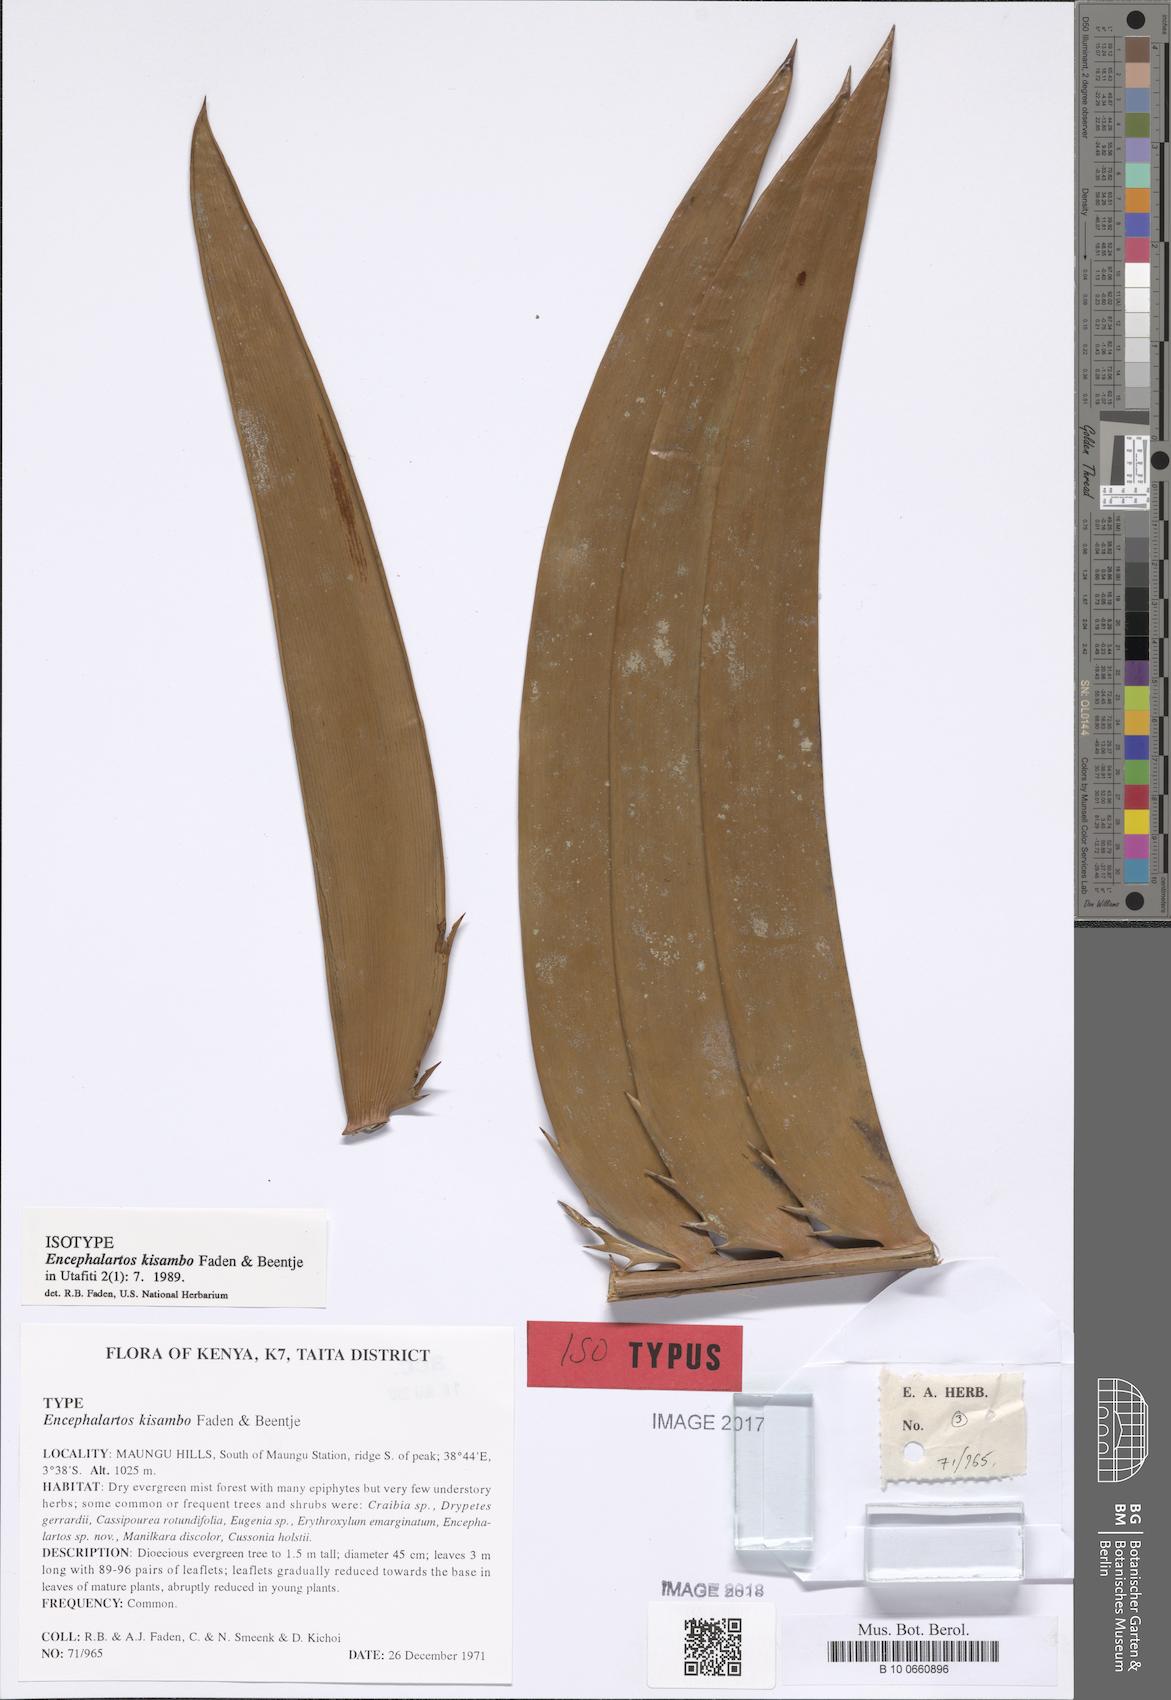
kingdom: Plantae
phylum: Tracheophyta
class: Cycadopsida
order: Cycadales
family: Zamiaceae
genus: Encephalartos
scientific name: Encephalartos kisambo
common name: Voi cycad
